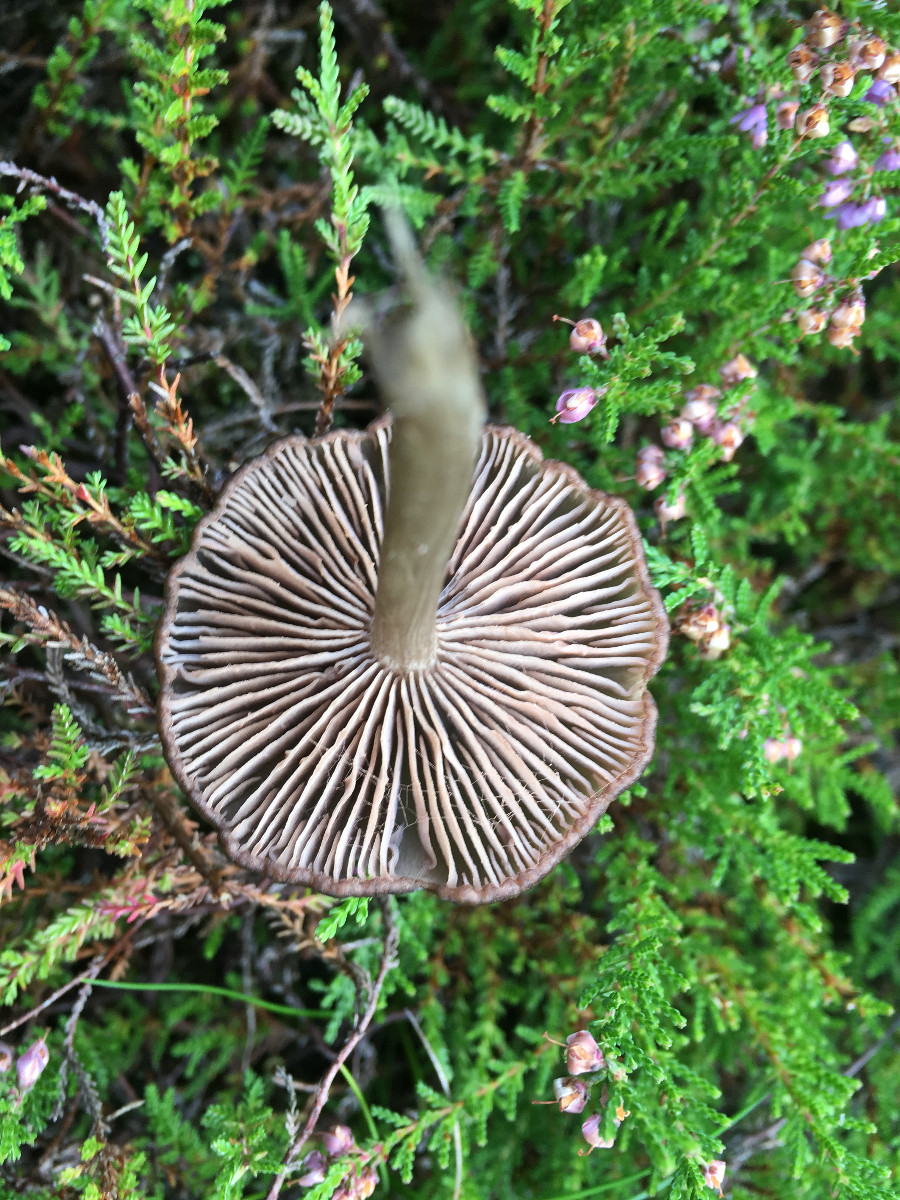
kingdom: Fungi
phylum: Basidiomycota
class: Agaricomycetes
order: Agaricales
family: Entolomataceae
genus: Entocybe
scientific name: Entocybe turbida
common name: plantage-rødblad
